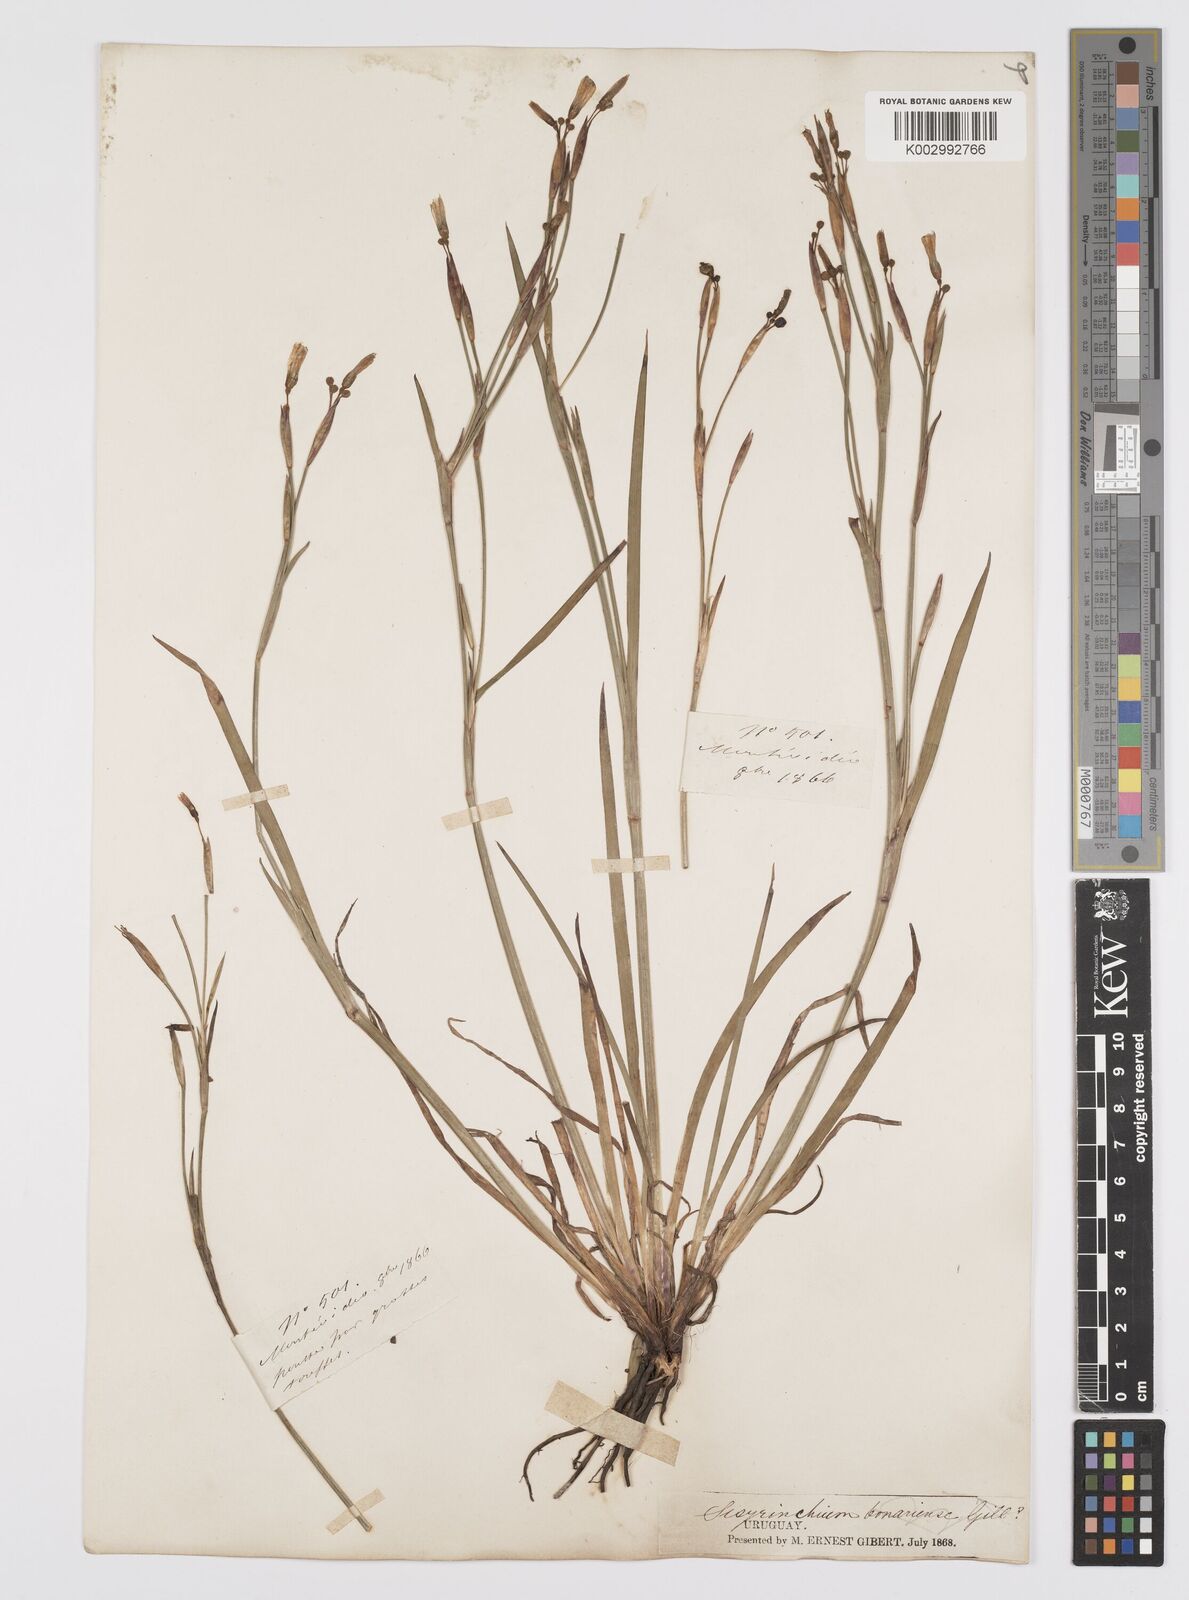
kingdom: Plantae
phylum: Tracheophyta
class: Liliopsida
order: Asparagales
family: Iridaceae
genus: Sisyrinchium
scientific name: Sisyrinchium chilense
